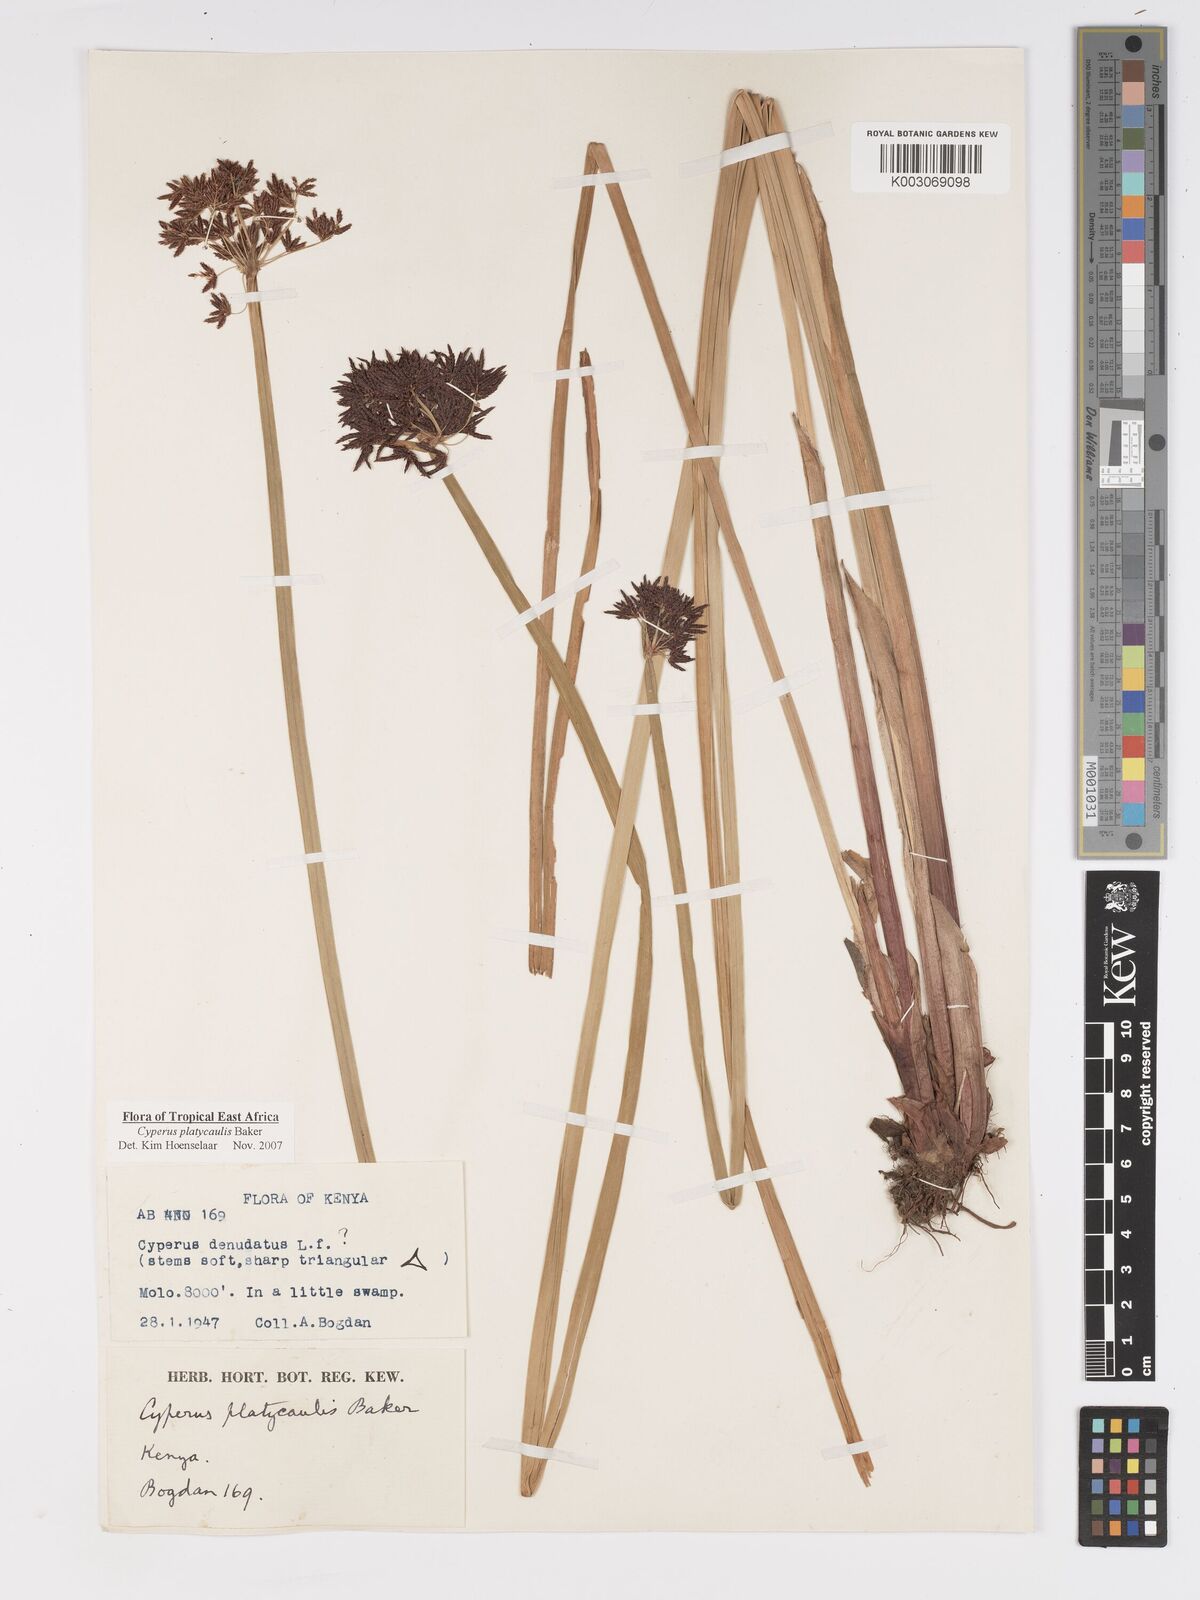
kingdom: Plantae
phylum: Tracheophyta
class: Liliopsida
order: Poales
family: Cyperaceae
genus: Cyperus
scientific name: Cyperus platycaulis
